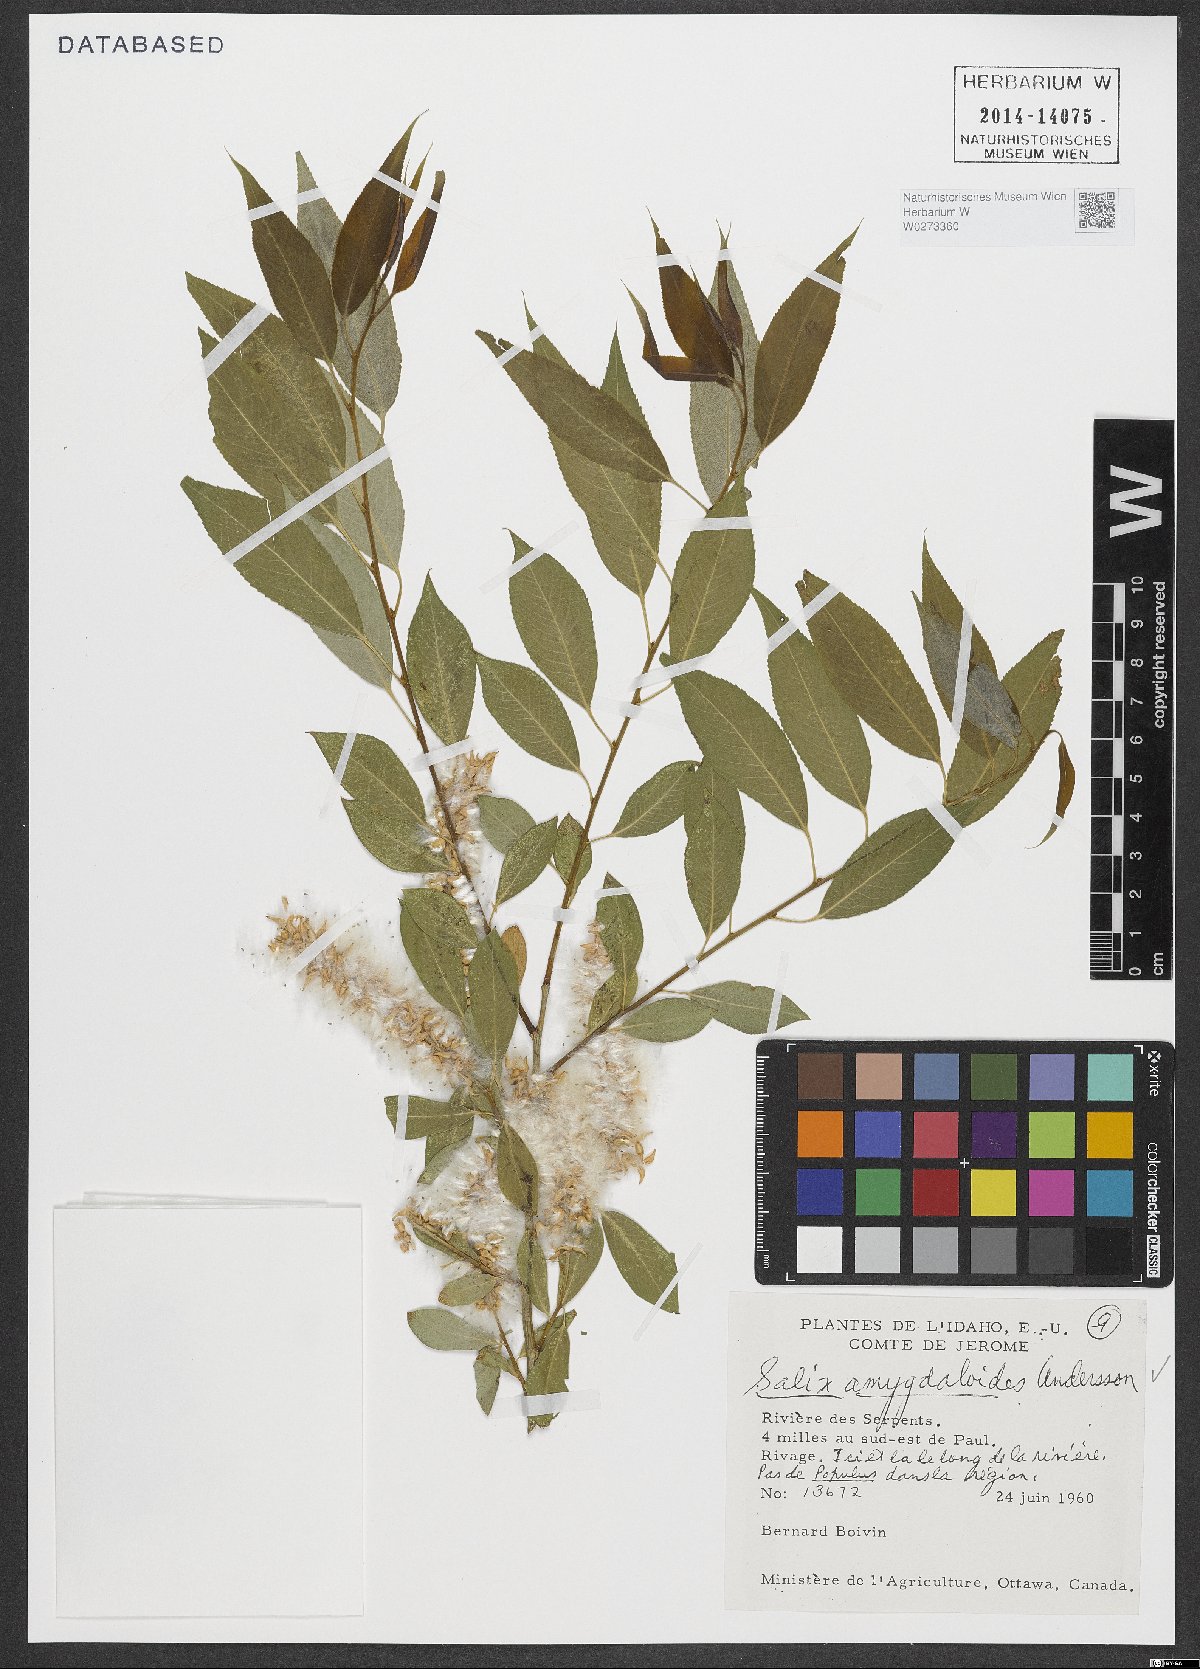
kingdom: Plantae
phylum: Tracheophyta
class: Magnoliopsida
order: Malpighiales
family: Salicaceae
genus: Salix
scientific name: Salix amygdaloides
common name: Peach leaf willow
